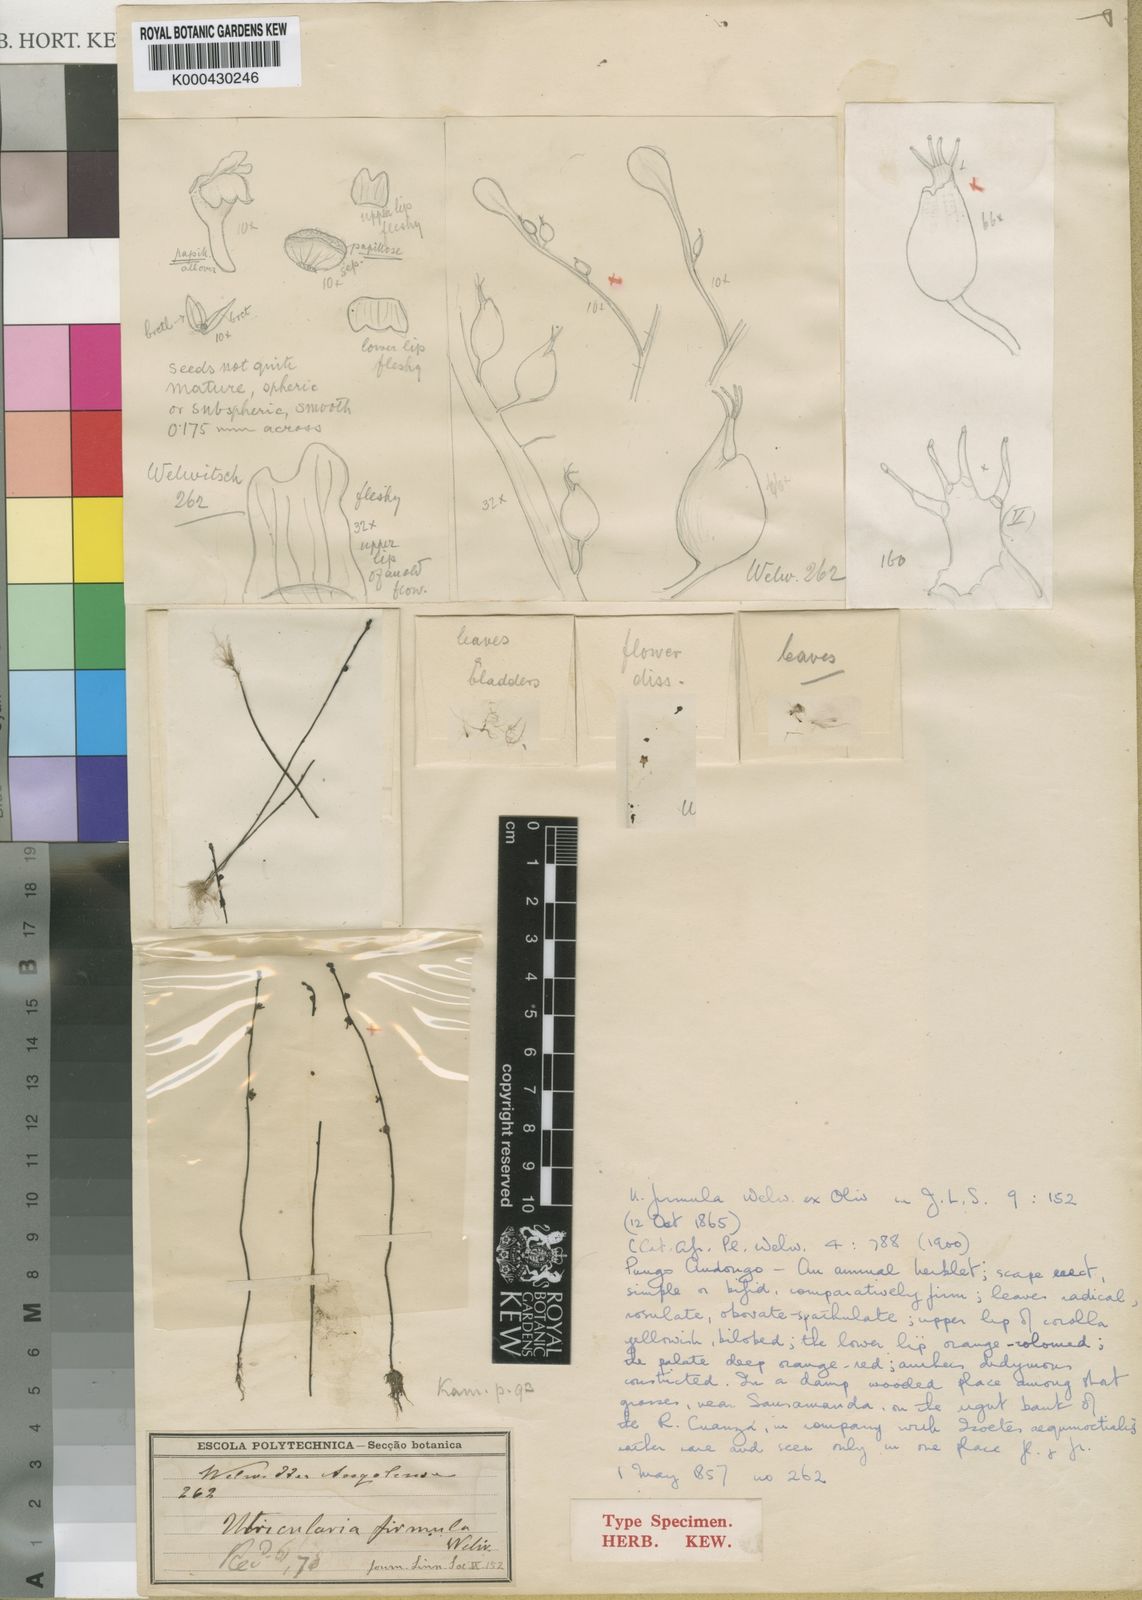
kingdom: Plantae
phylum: Tracheophyta
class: Magnoliopsida
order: Lamiales
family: Lentibulariaceae
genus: Utricularia
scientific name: Utricularia firmula
